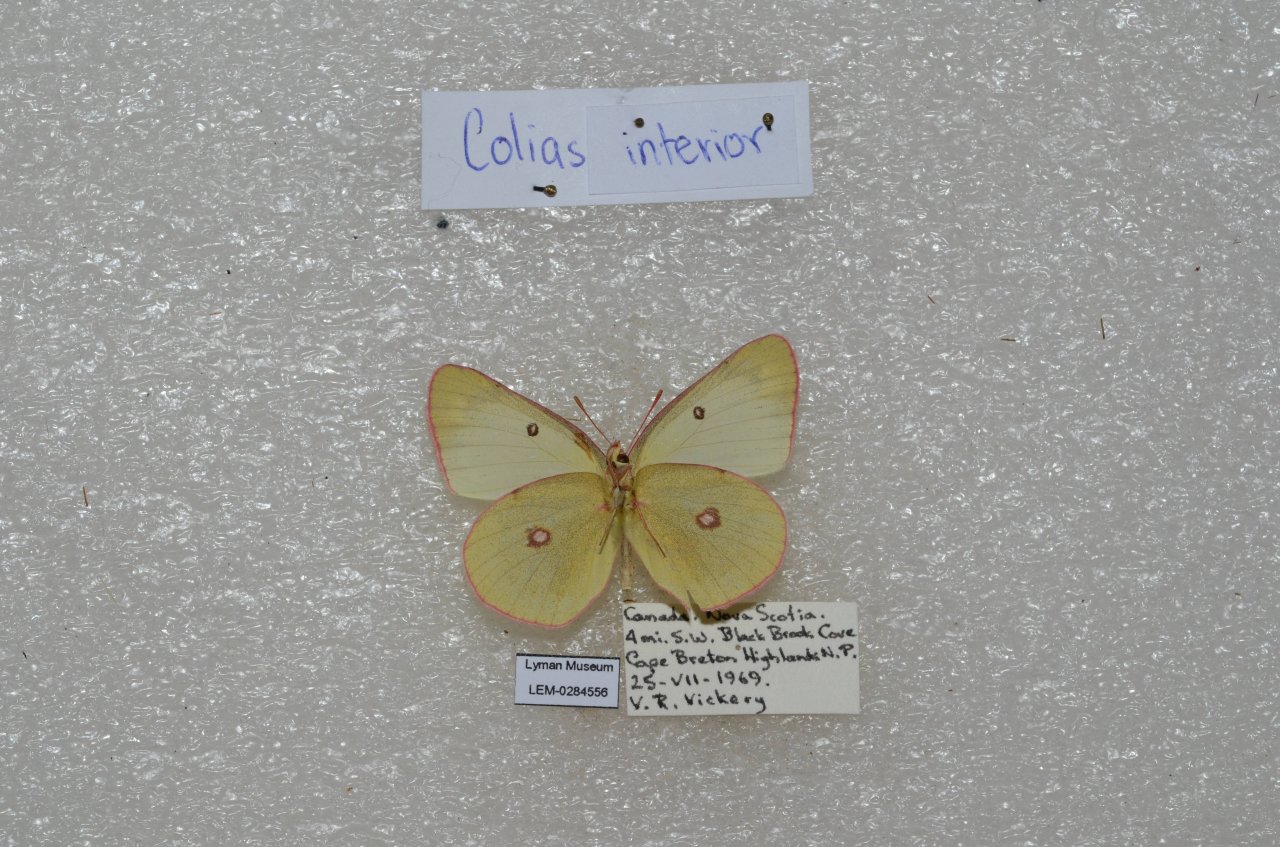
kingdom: Animalia
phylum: Arthropoda
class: Insecta
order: Lepidoptera
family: Pieridae
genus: Colias
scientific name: Colias interior
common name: Pink-edged Sulphur
